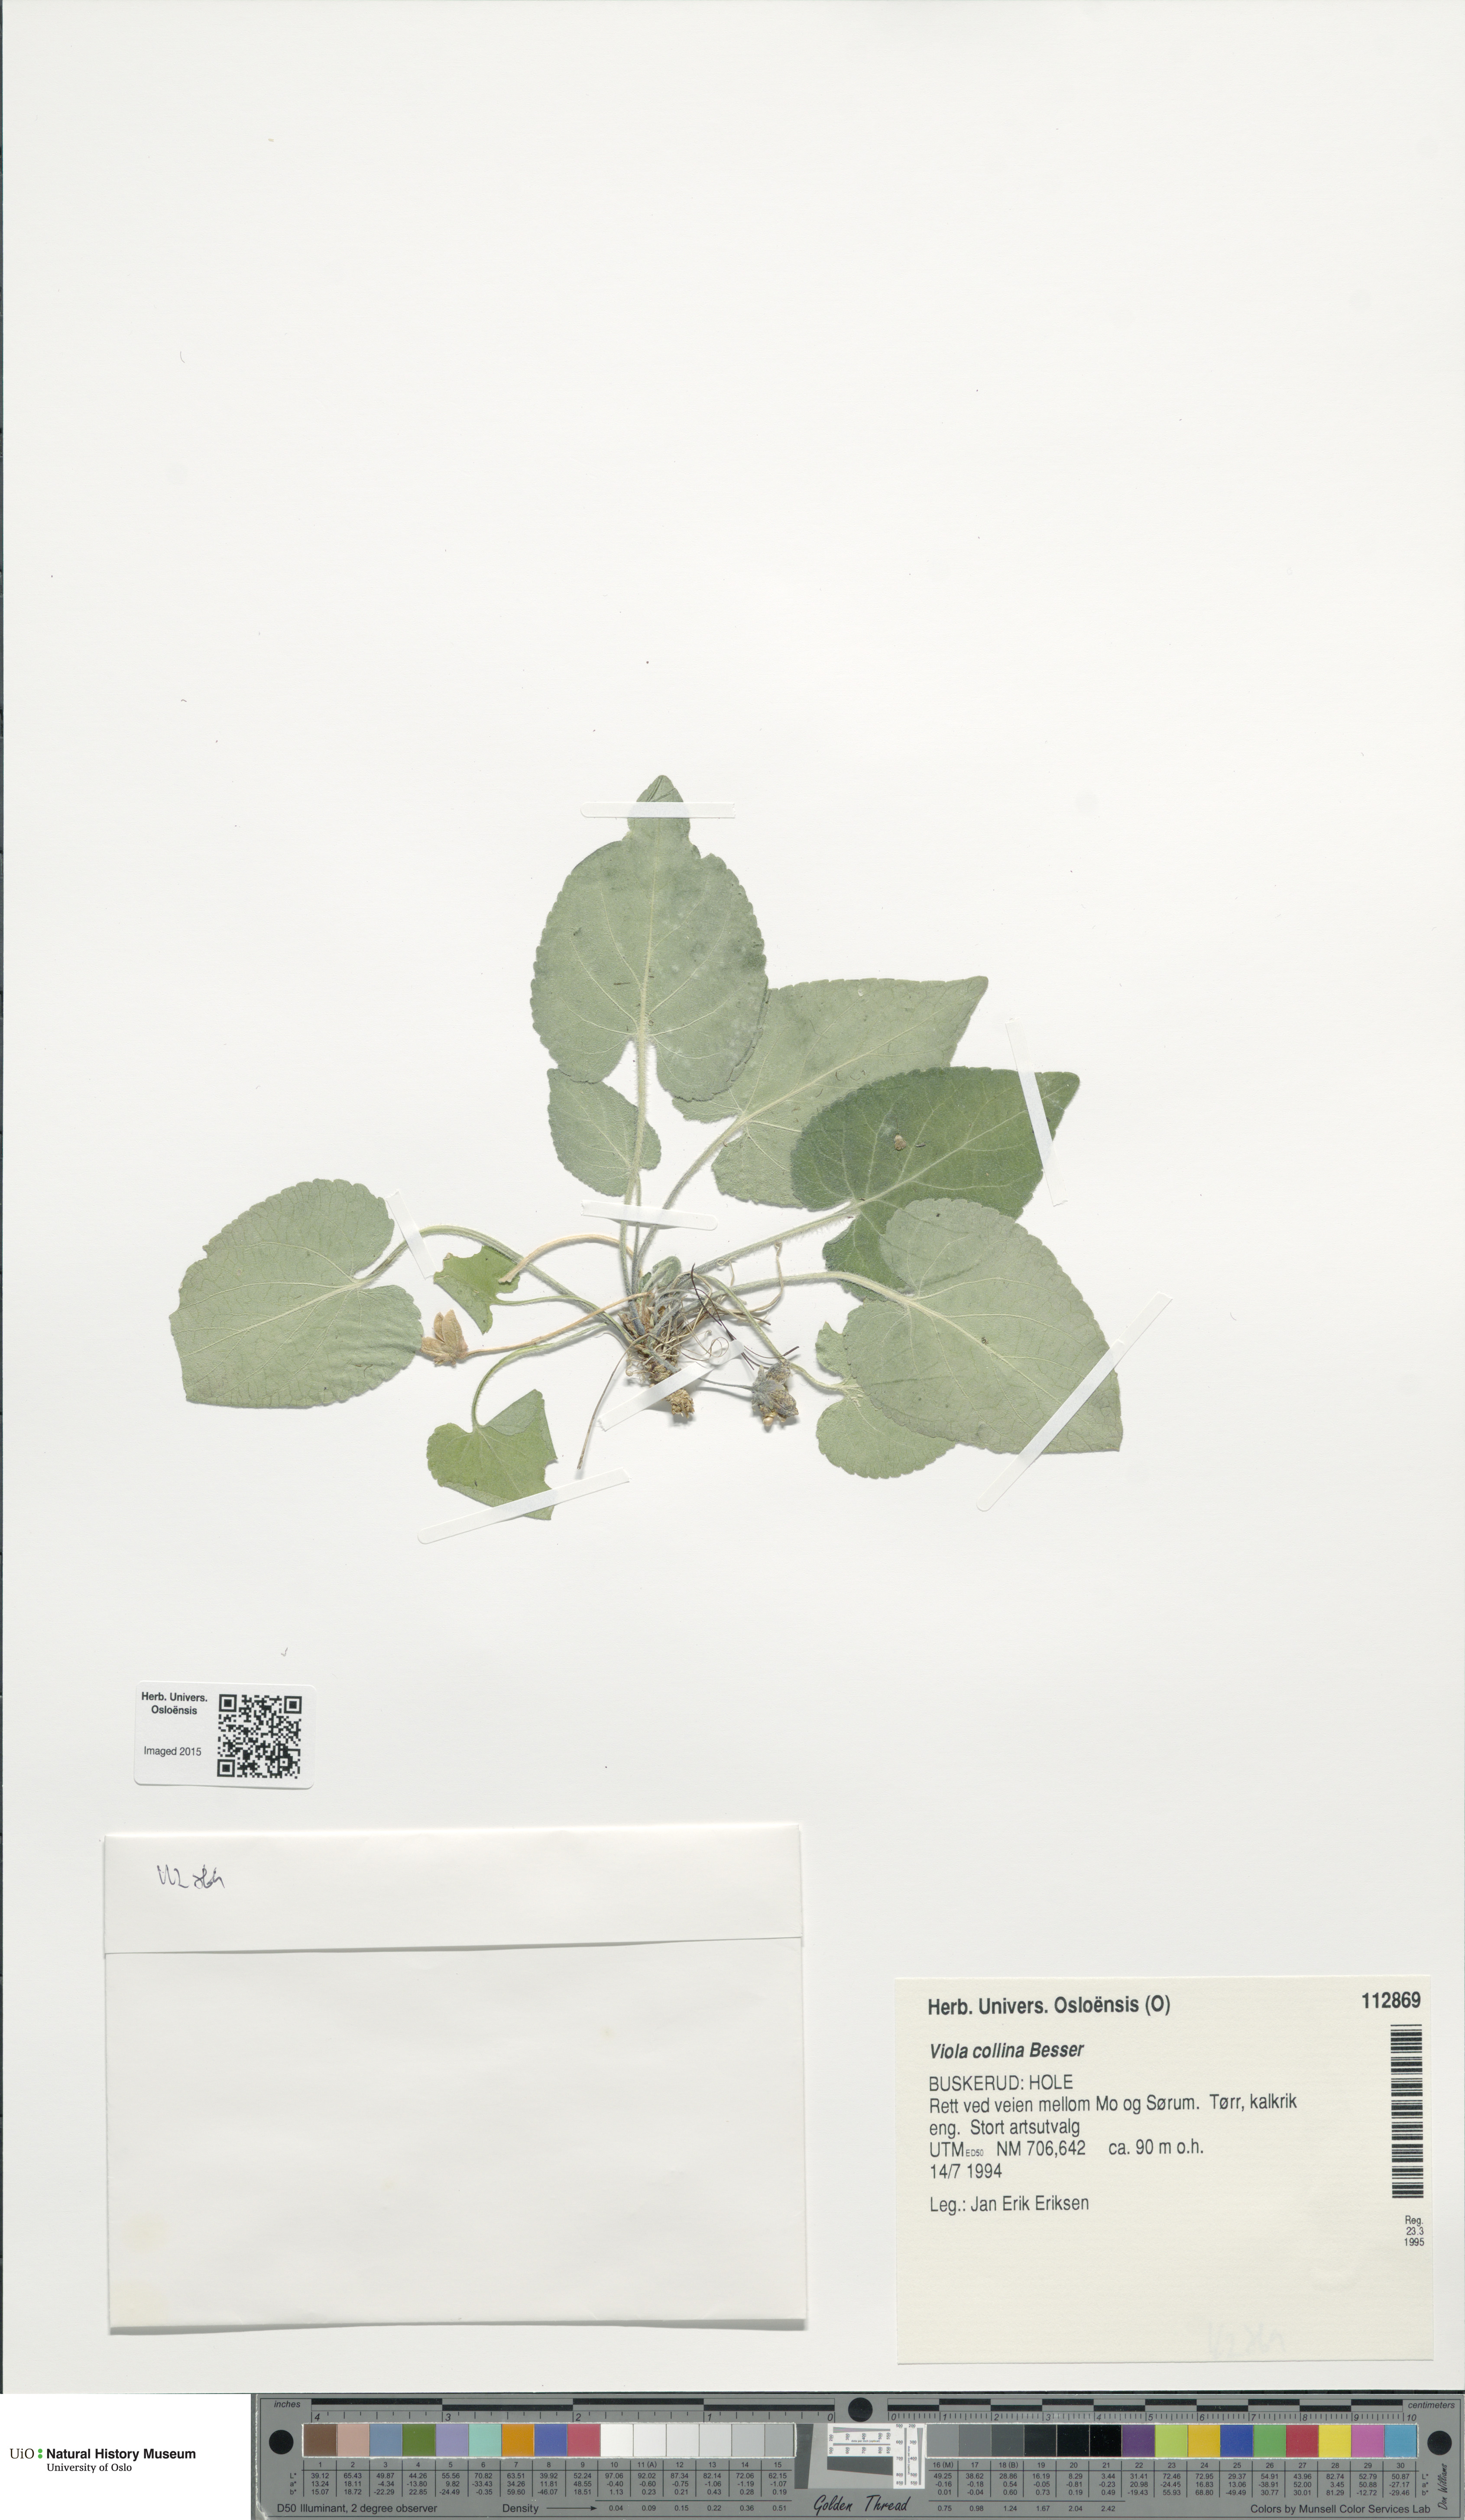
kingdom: Plantae
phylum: Tracheophyta
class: Magnoliopsida
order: Malpighiales
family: Violaceae
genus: Viola
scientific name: Viola collina
